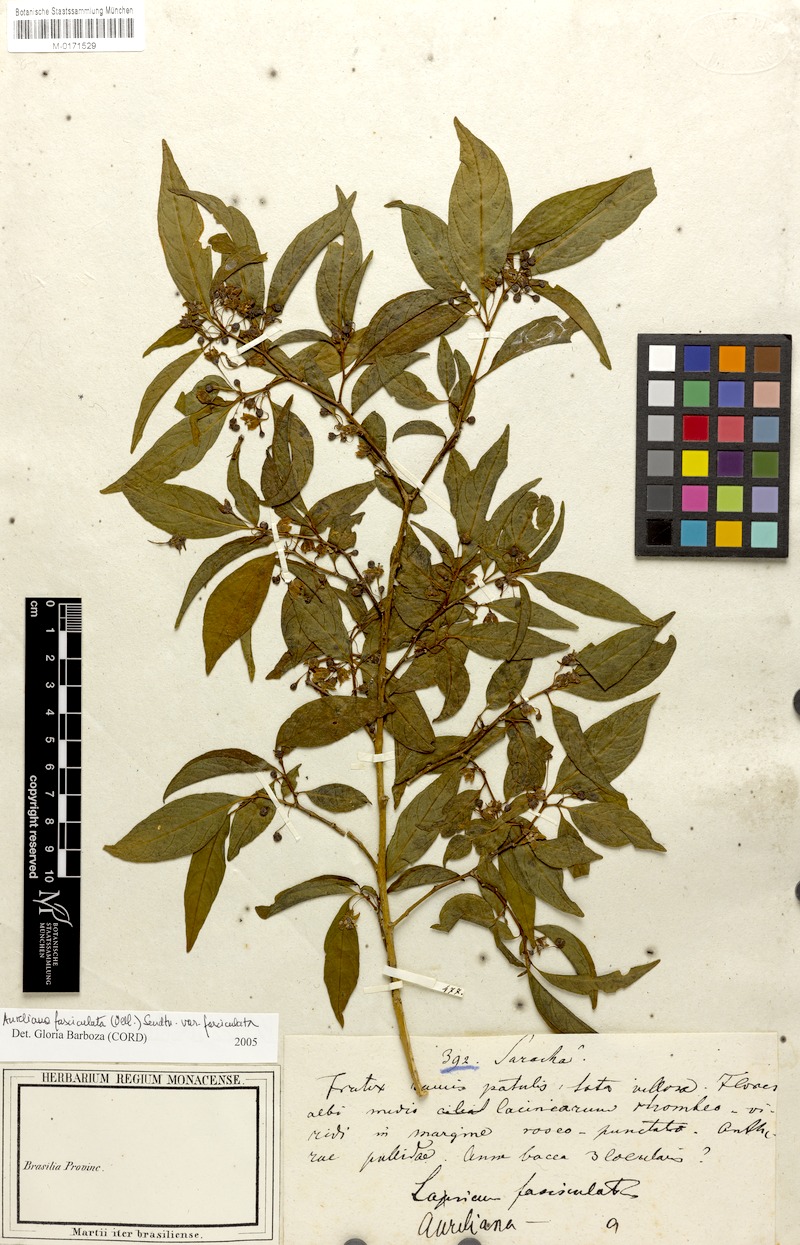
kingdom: Plantae
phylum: Tracheophyta
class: Magnoliopsida
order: Solanales
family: Solanaceae
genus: Athenaea
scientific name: Athenaea fasciculata
